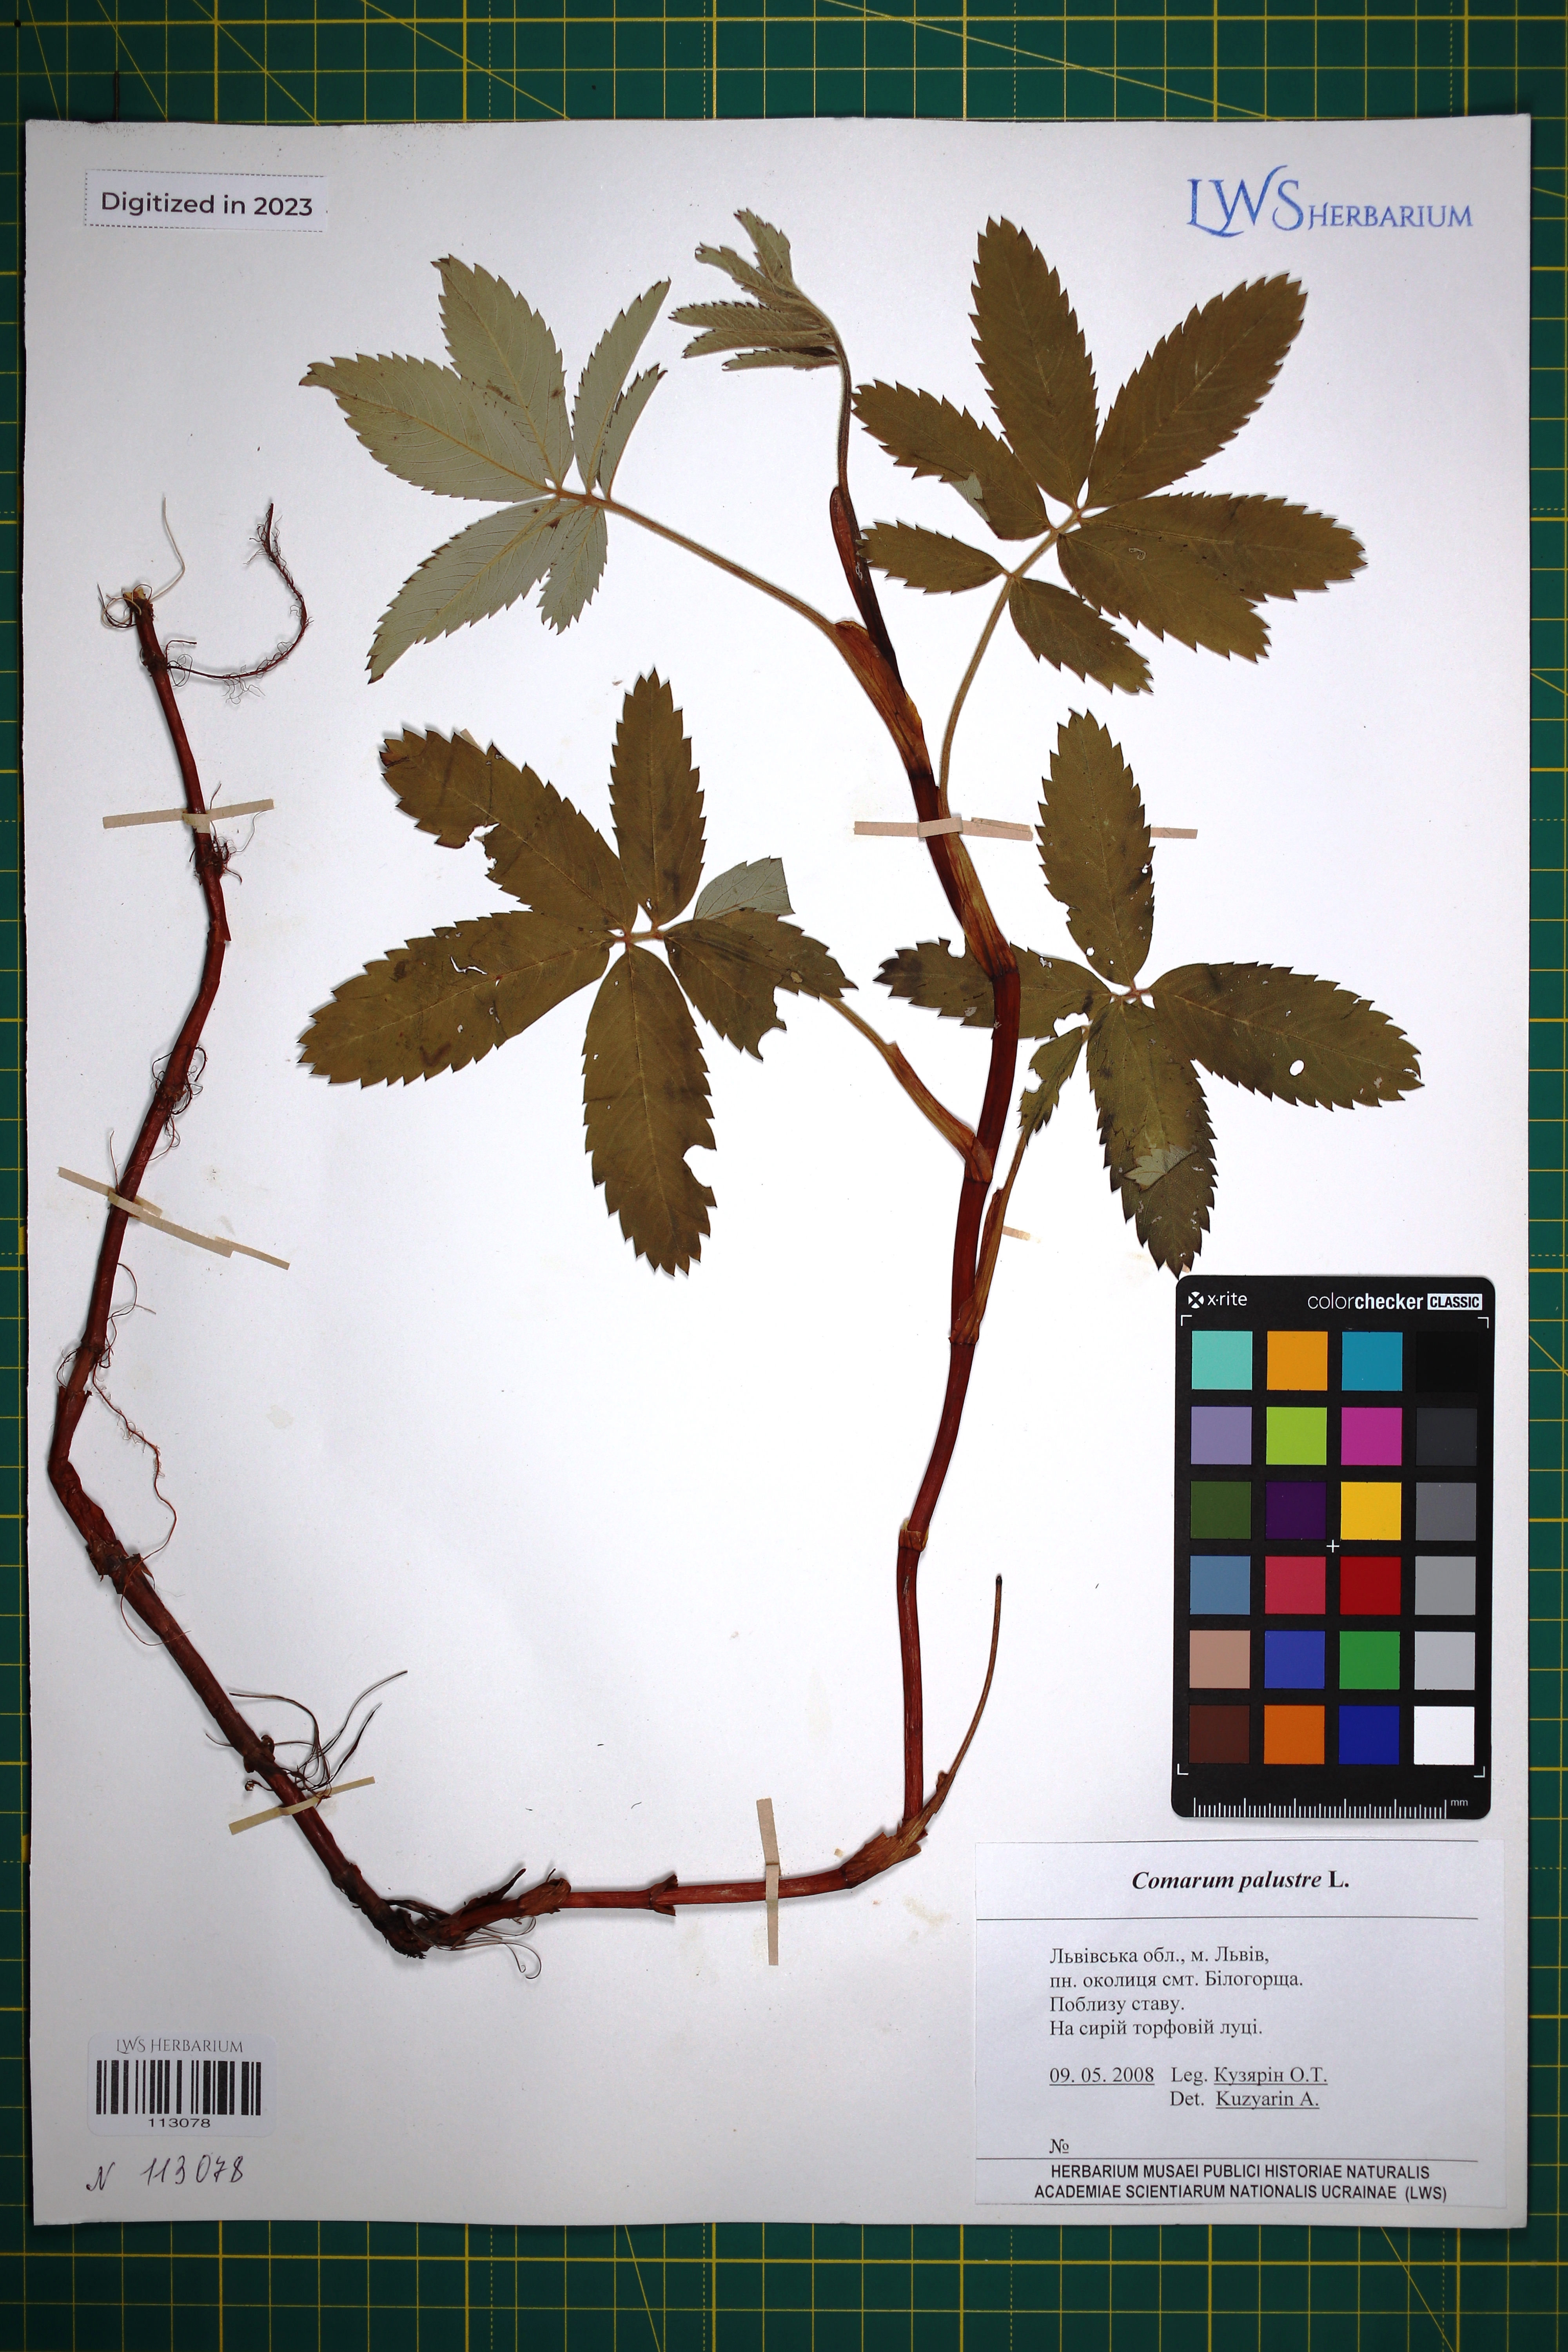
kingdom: Plantae
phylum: Tracheophyta
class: Magnoliopsida
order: Rosales
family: Rosaceae
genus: Comarum
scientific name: Comarum palustre
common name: Marsh cinquefoil
